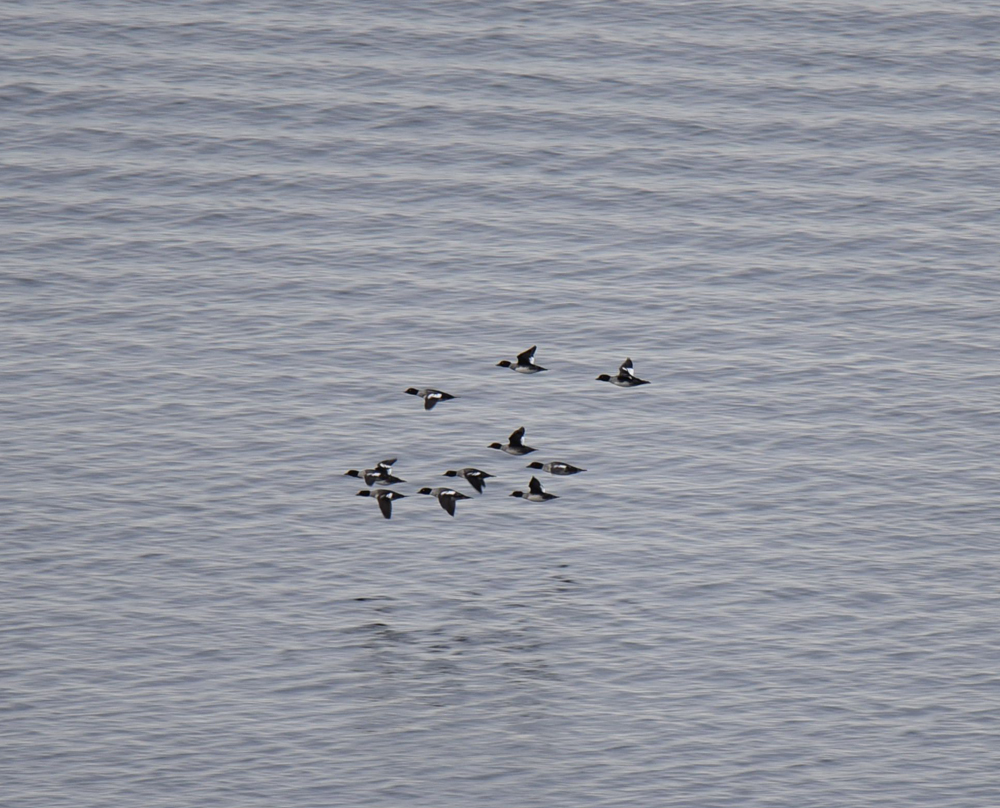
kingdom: Animalia
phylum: Chordata
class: Aves
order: Anseriformes
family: Anatidae
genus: Bucephala
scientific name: Bucephala clangula
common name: Common goldeneye
